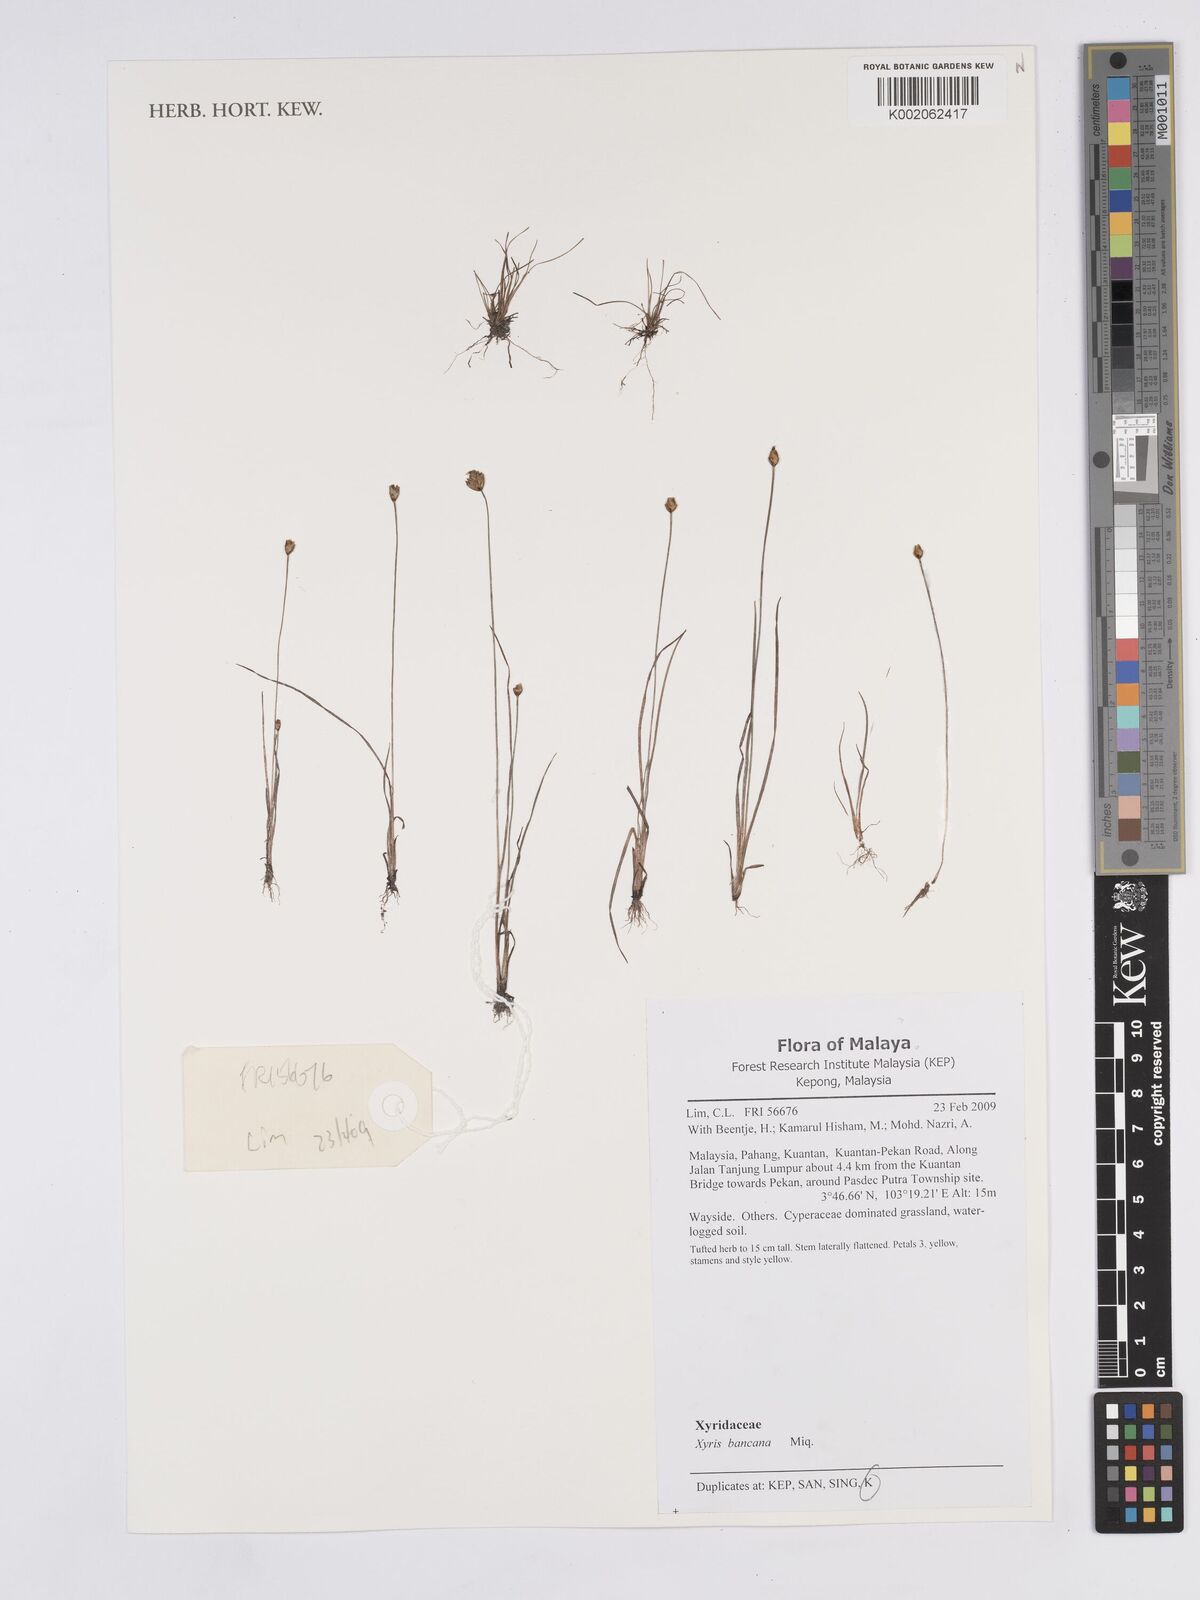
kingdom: Plantae
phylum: Tracheophyta
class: Liliopsida
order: Poales
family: Xyridaceae
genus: Xyris
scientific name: Xyris bancana
